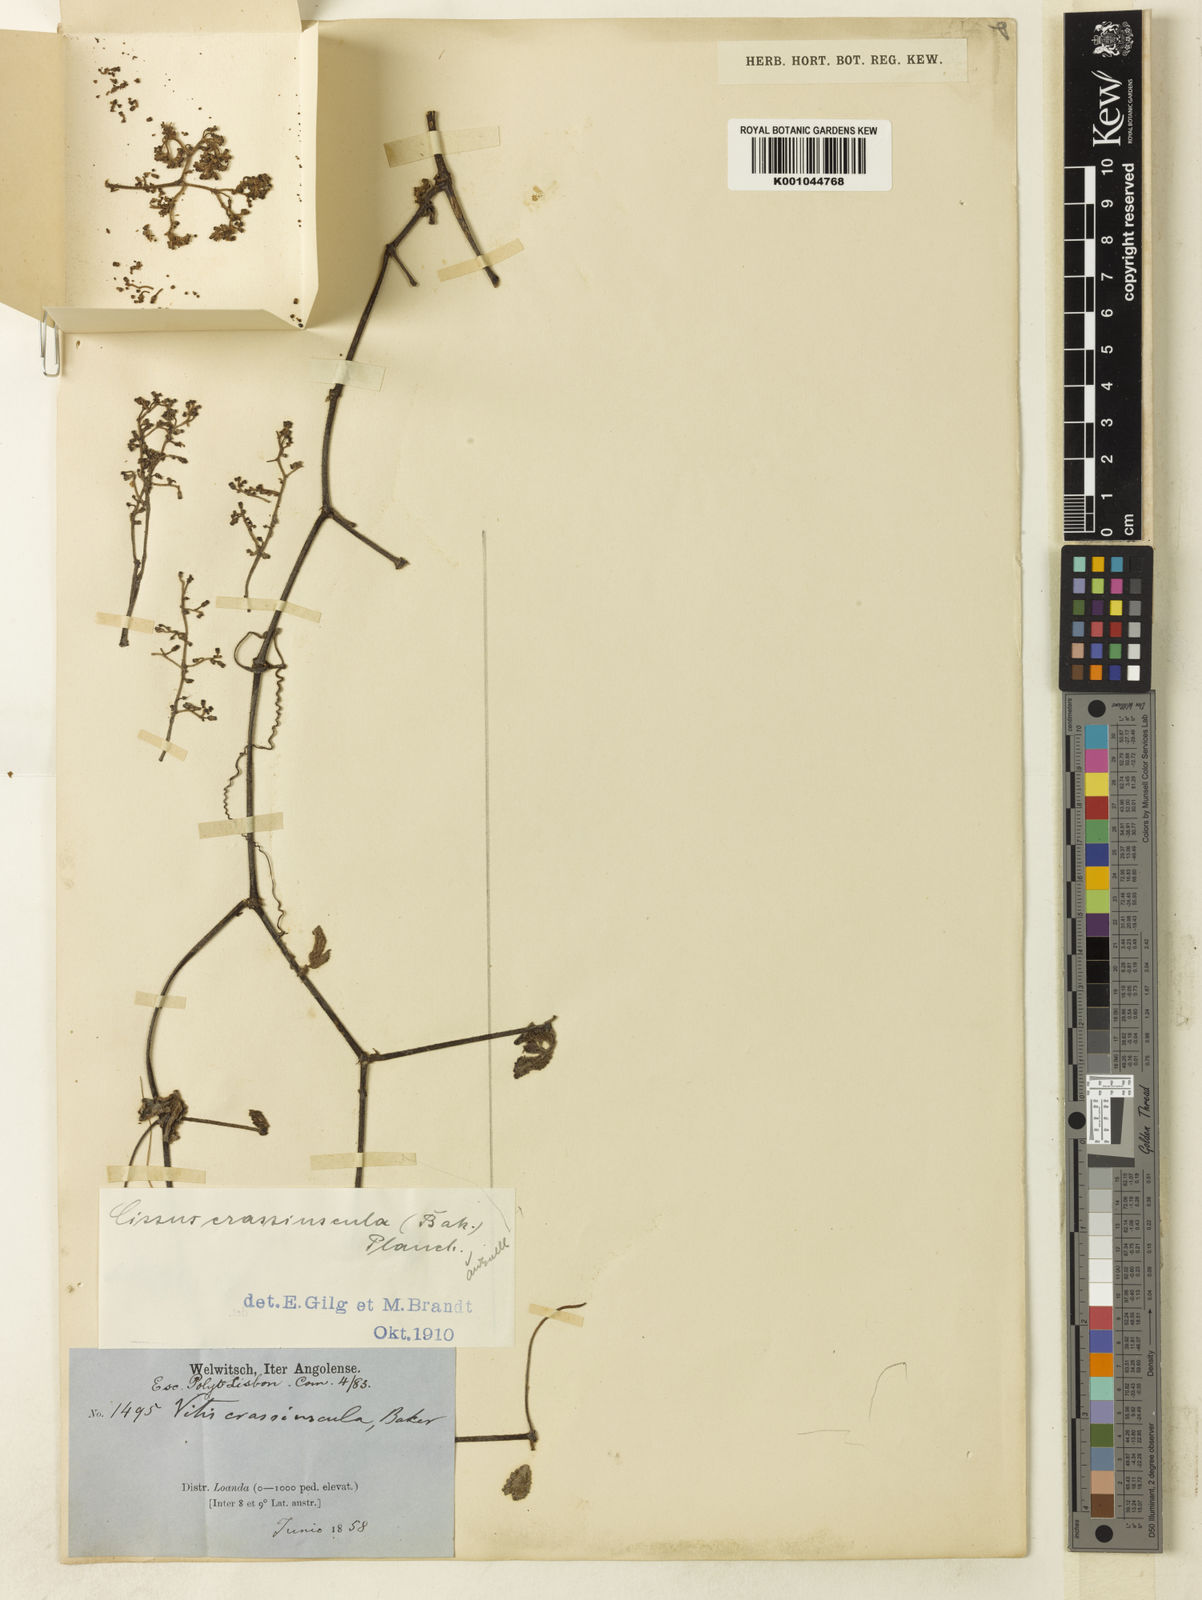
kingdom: Plantae
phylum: Tracheophyta
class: Magnoliopsida
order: Vitales
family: Vitaceae
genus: Cyphostemma
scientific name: Cyphostemma crassiusculum
